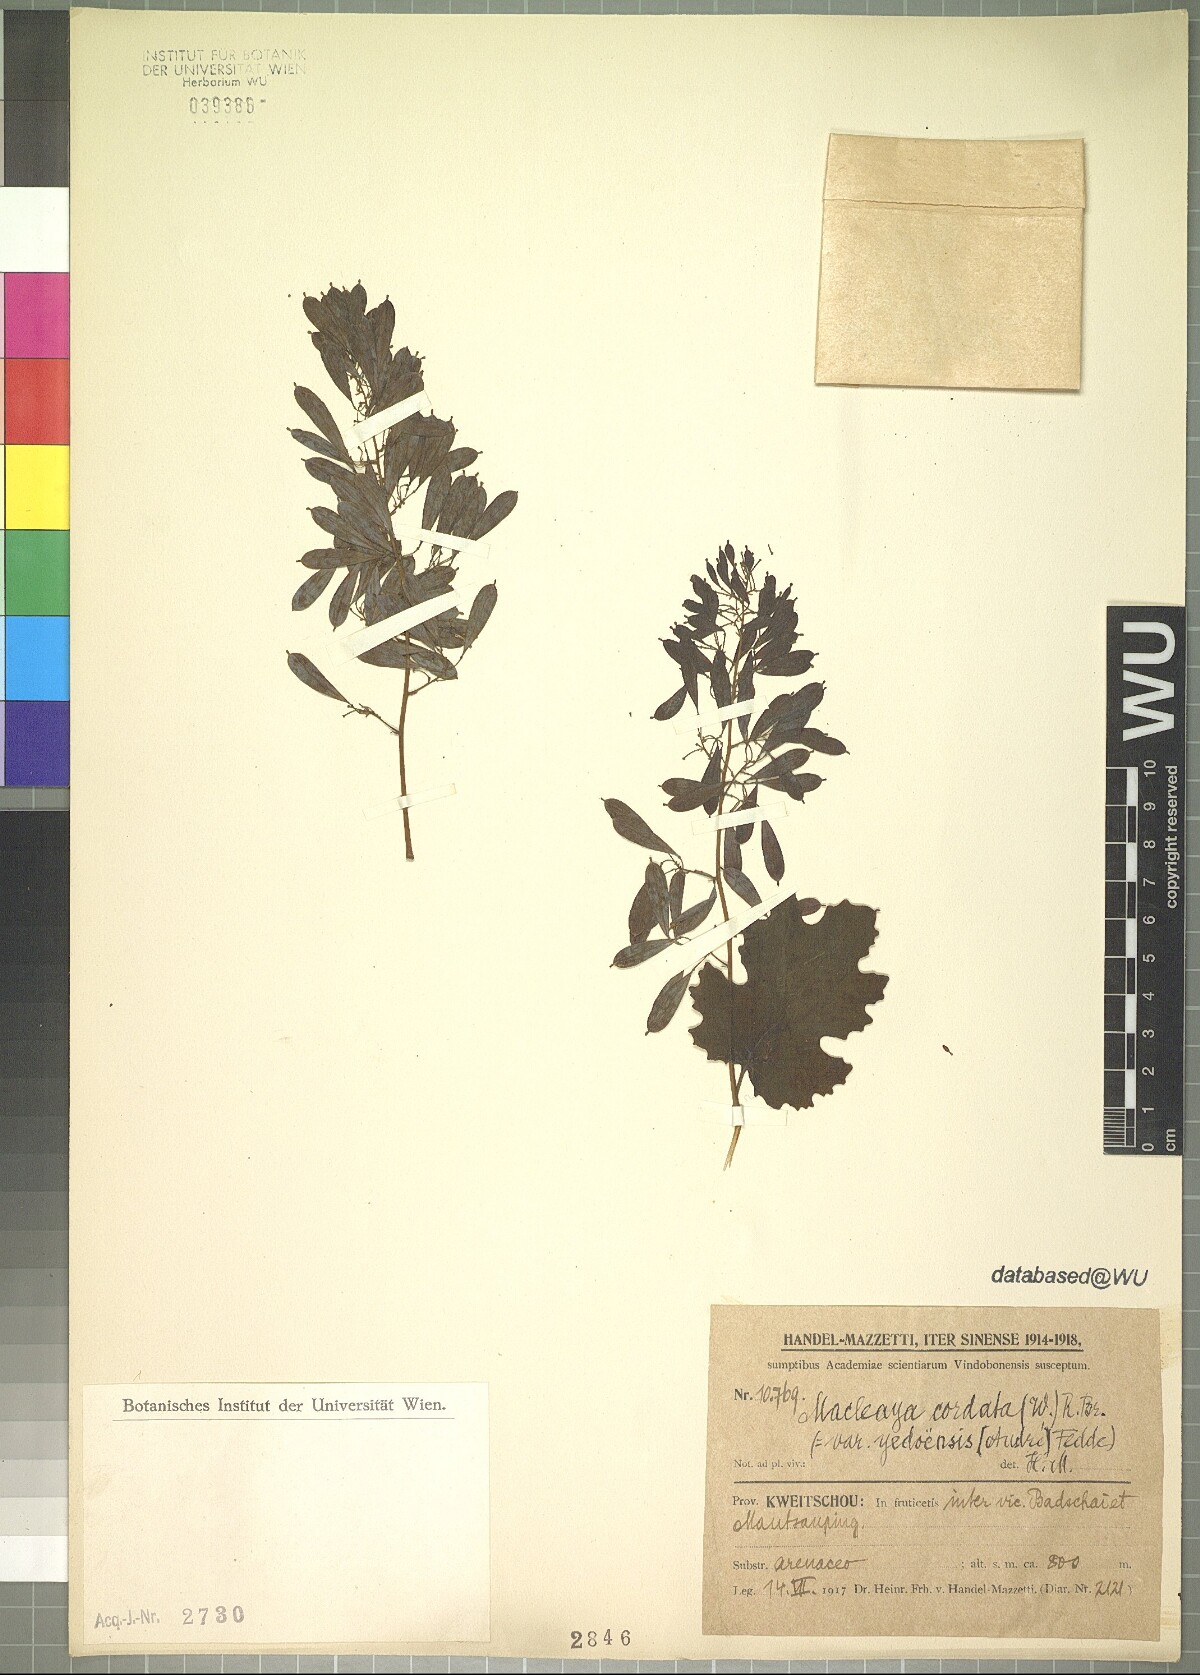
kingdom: Plantae
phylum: Tracheophyta
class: Magnoliopsida
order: Ranunculales
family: Papaveraceae
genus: Macleaya
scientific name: Macleaya cordata
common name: Plume poppy
